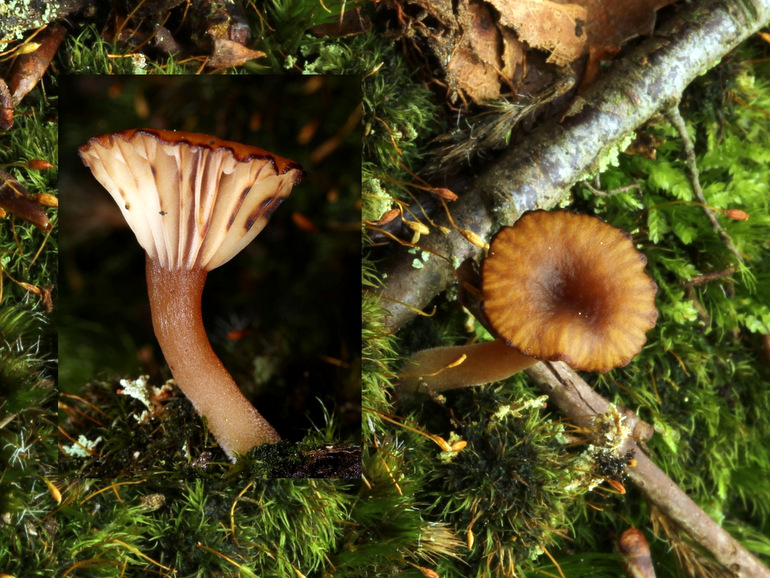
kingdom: Fungi
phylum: Basidiomycota
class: Agaricomycetes
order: Agaricales
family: Hygrophoraceae
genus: Lichenomphalia
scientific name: Lichenomphalia umbellifera
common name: tørve-lavhat
